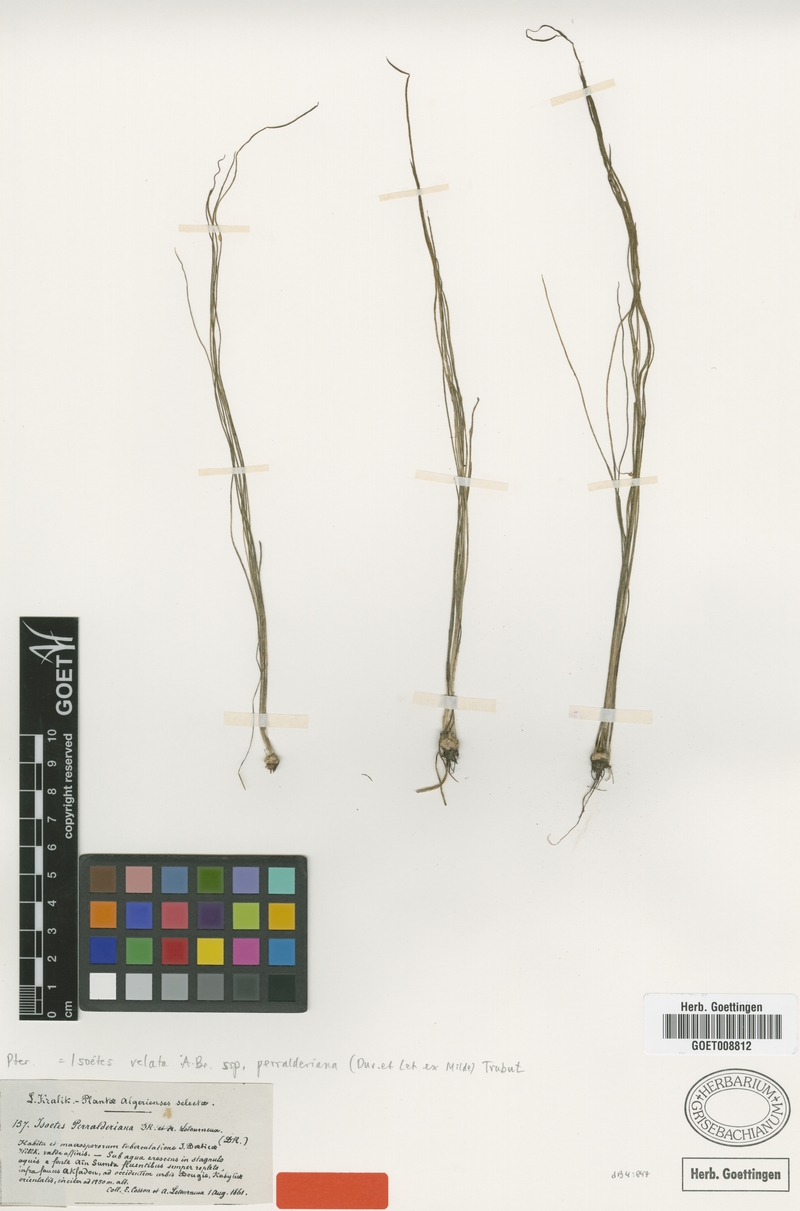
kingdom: Plantae
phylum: Tracheophyta
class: Lycopodiopsida
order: Isoetales
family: Isoetaceae
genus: Isoetes
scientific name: Isoetes longissima
